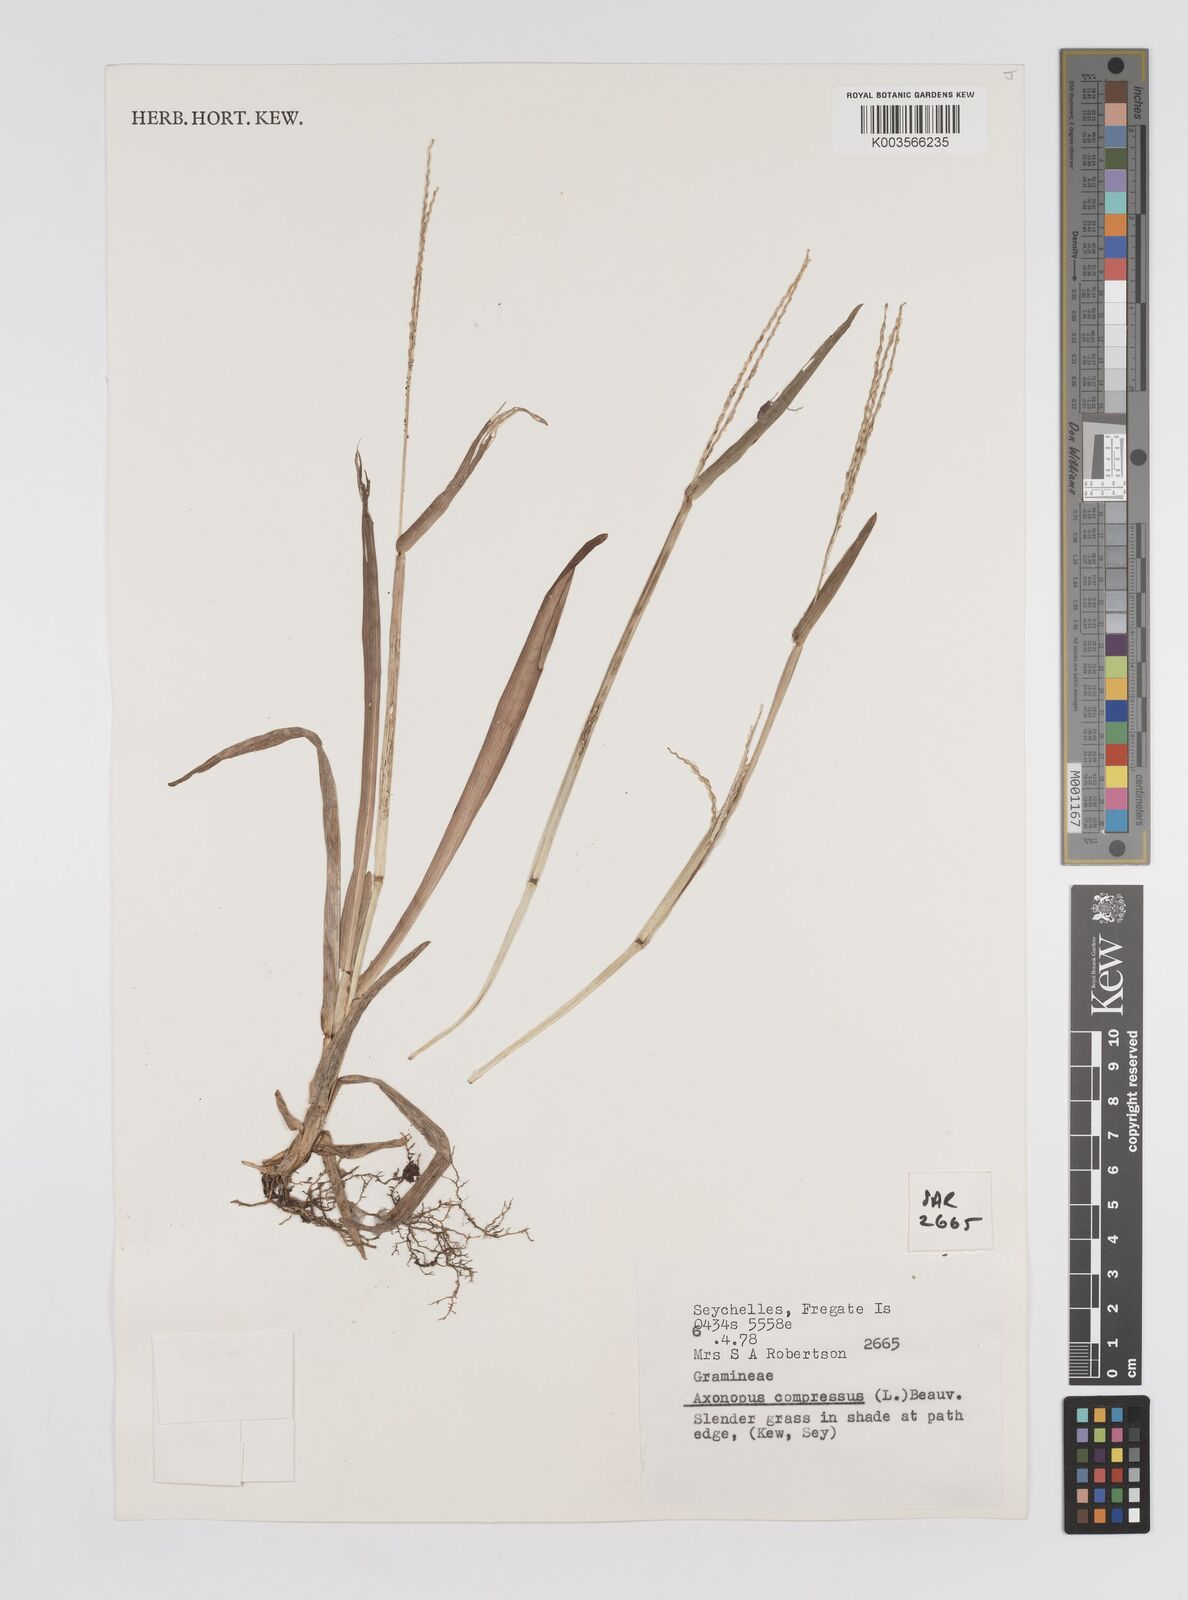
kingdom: Plantae
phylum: Tracheophyta
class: Liliopsida
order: Poales
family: Poaceae
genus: Axonopus
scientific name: Axonopus compressus
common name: American carpet grass
